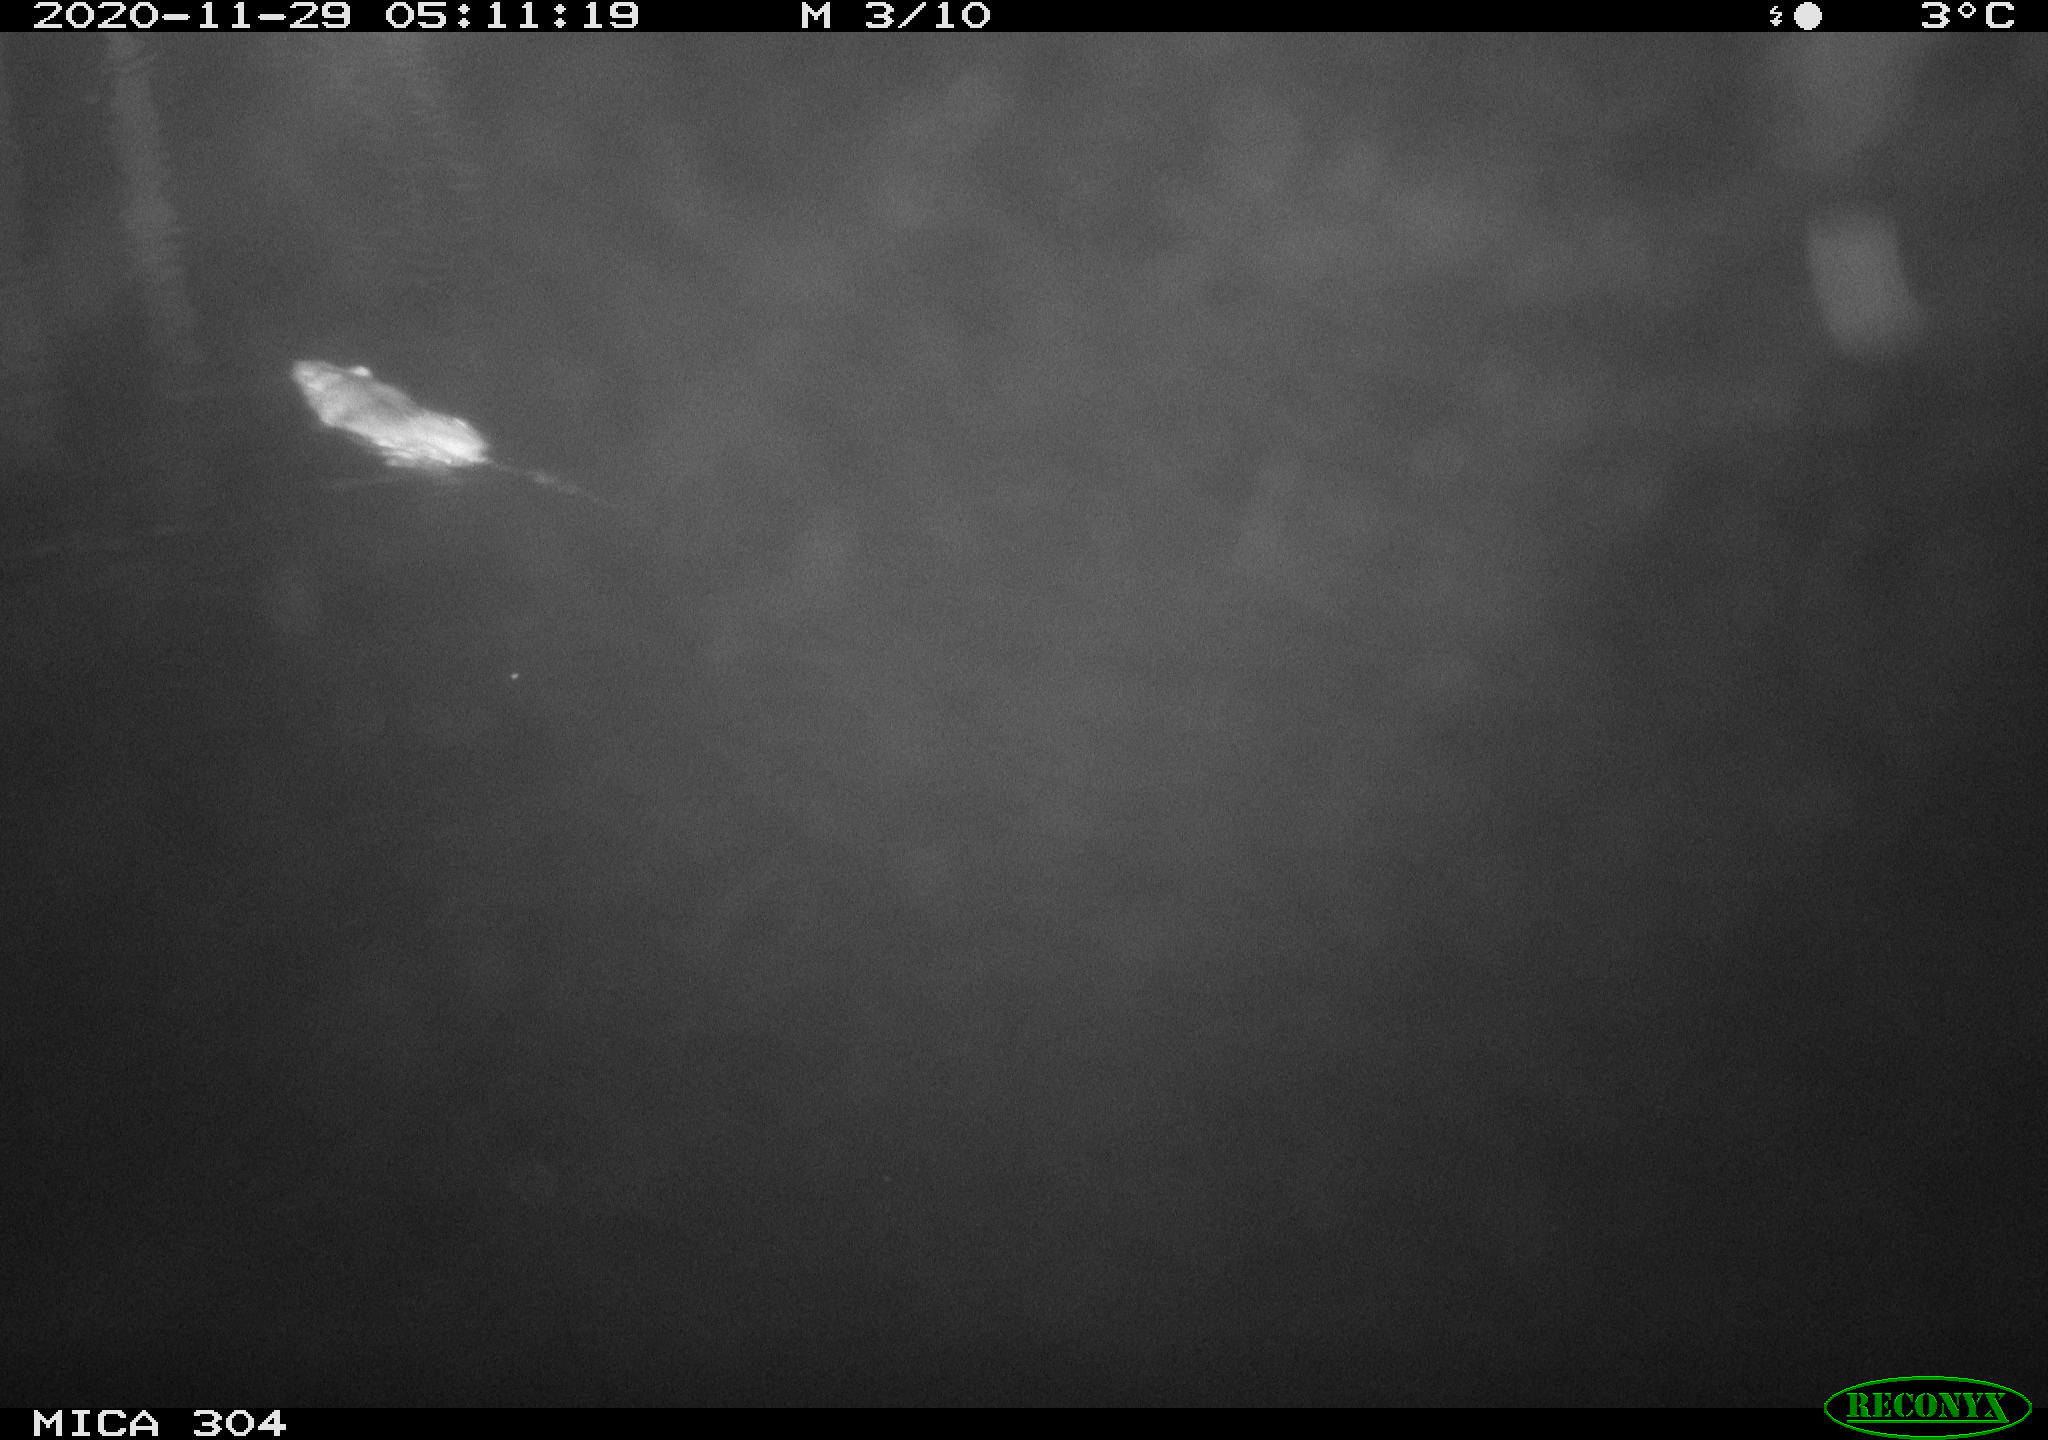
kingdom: Animalia
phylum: Chordata
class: Mammalia
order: Rodentia
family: Muridae
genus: Rattus
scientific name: Rattus norvegicus
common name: Brown rat
